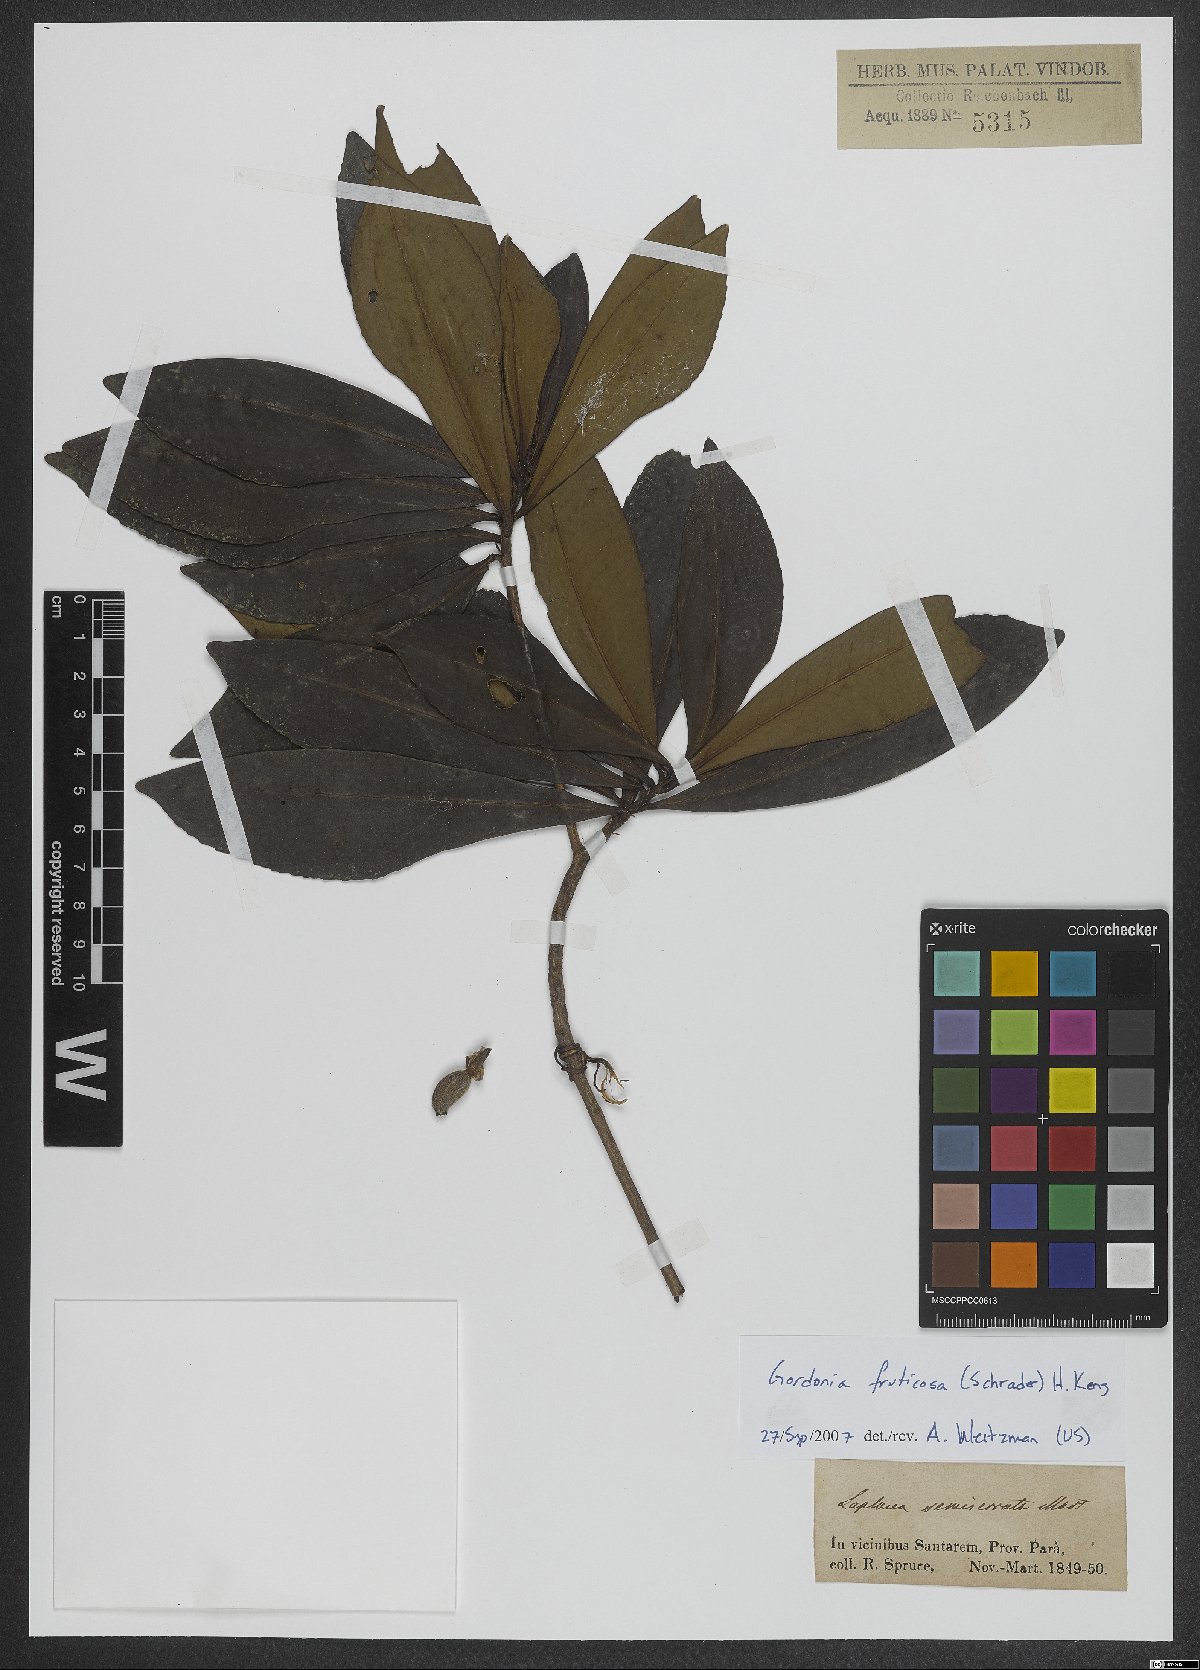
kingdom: Plantae
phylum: Tracheophyta
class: Magnoliopsida
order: Ericales
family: Theaceae
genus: Gordonia
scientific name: Gordonia fruticosa
